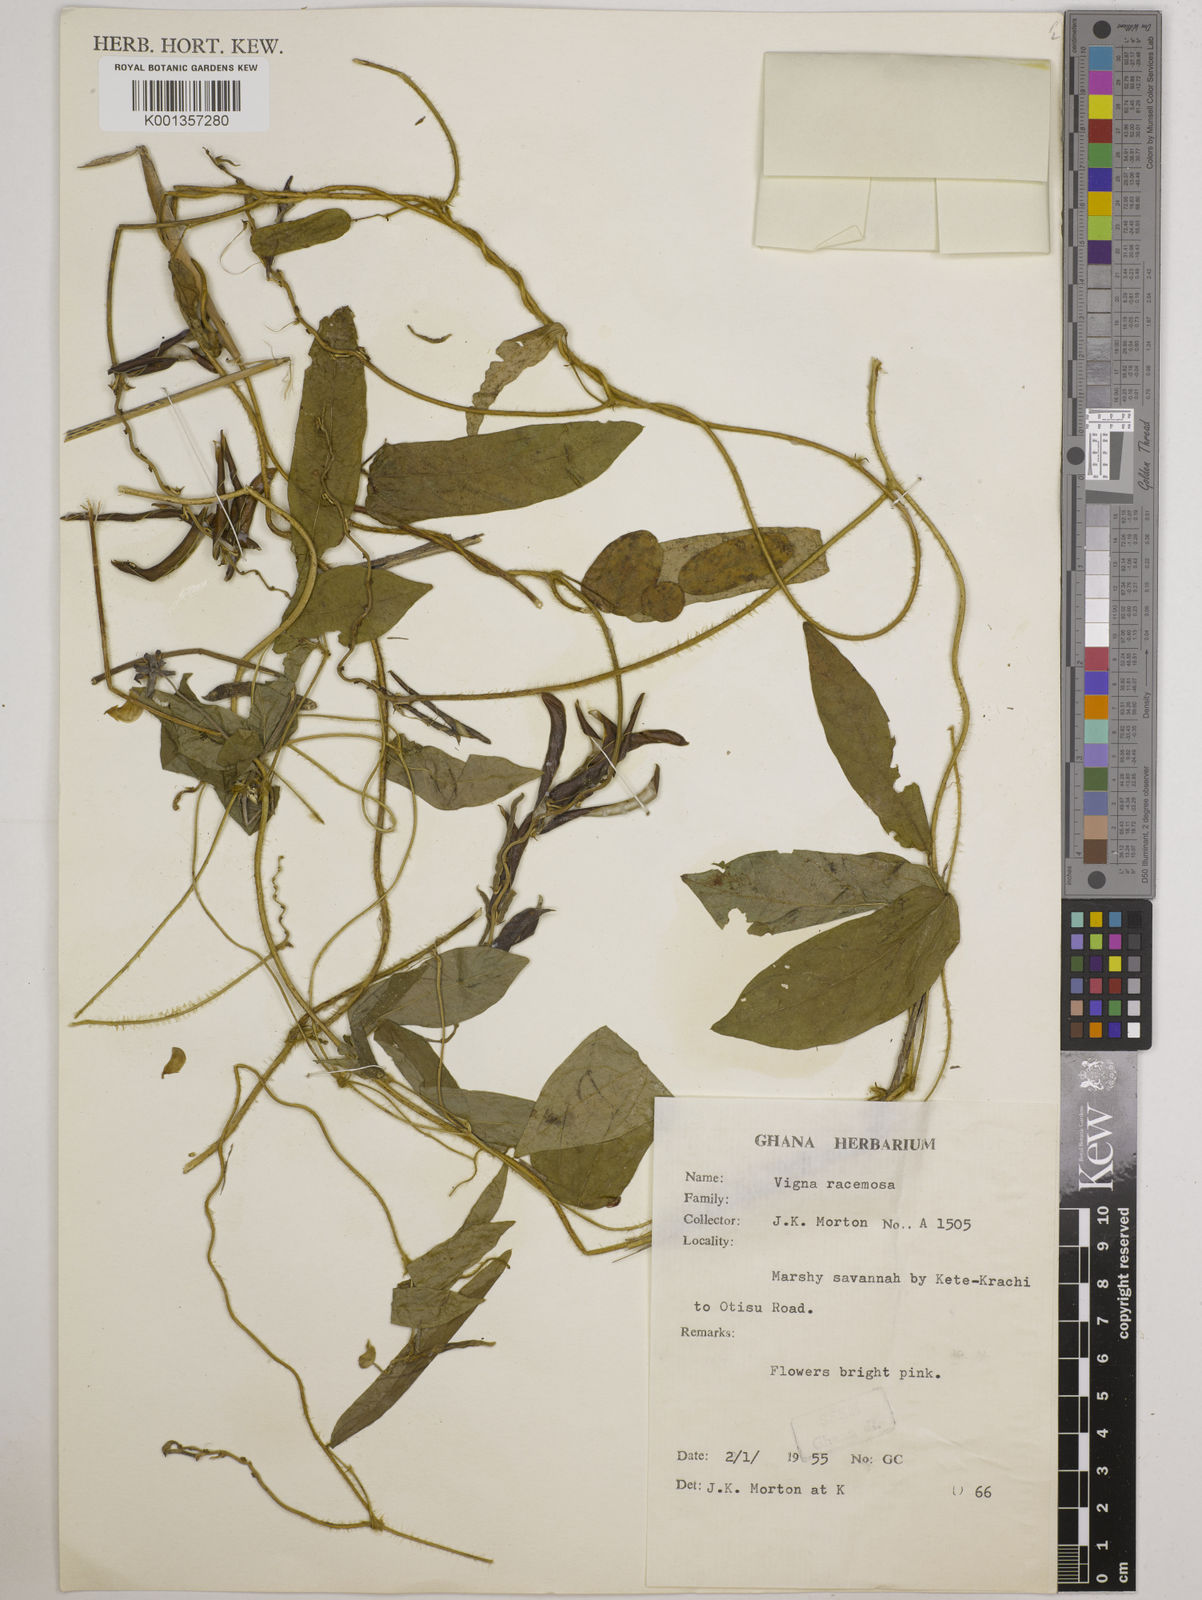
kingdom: Plantae
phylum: Tracheophyta
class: Magnoliopsida
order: Fabales
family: Fabaceae
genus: Vigna
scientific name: Vigna racemosa
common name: Beans not eaten
